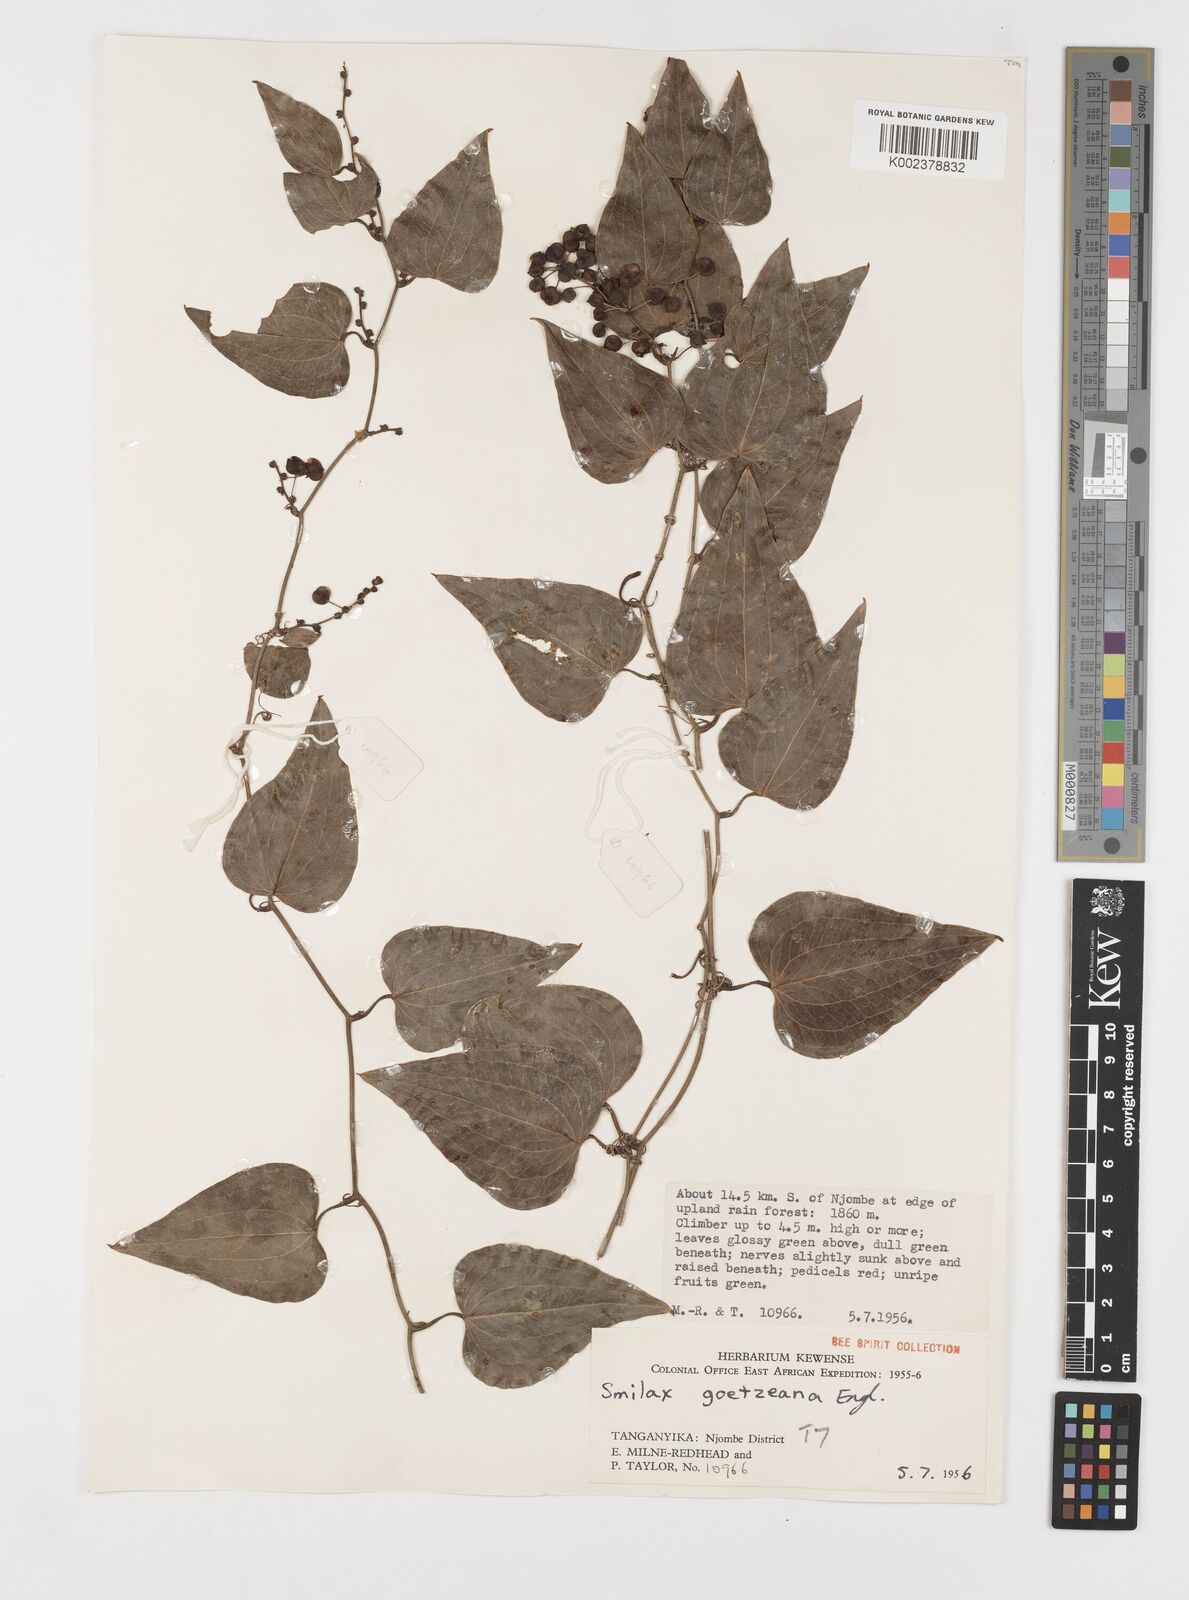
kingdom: Plantae
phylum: Tracheophyta
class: Liliopsida
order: Liliales
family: Smilacaceae
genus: Smilax
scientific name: Smilax aspera
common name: Common smilax
